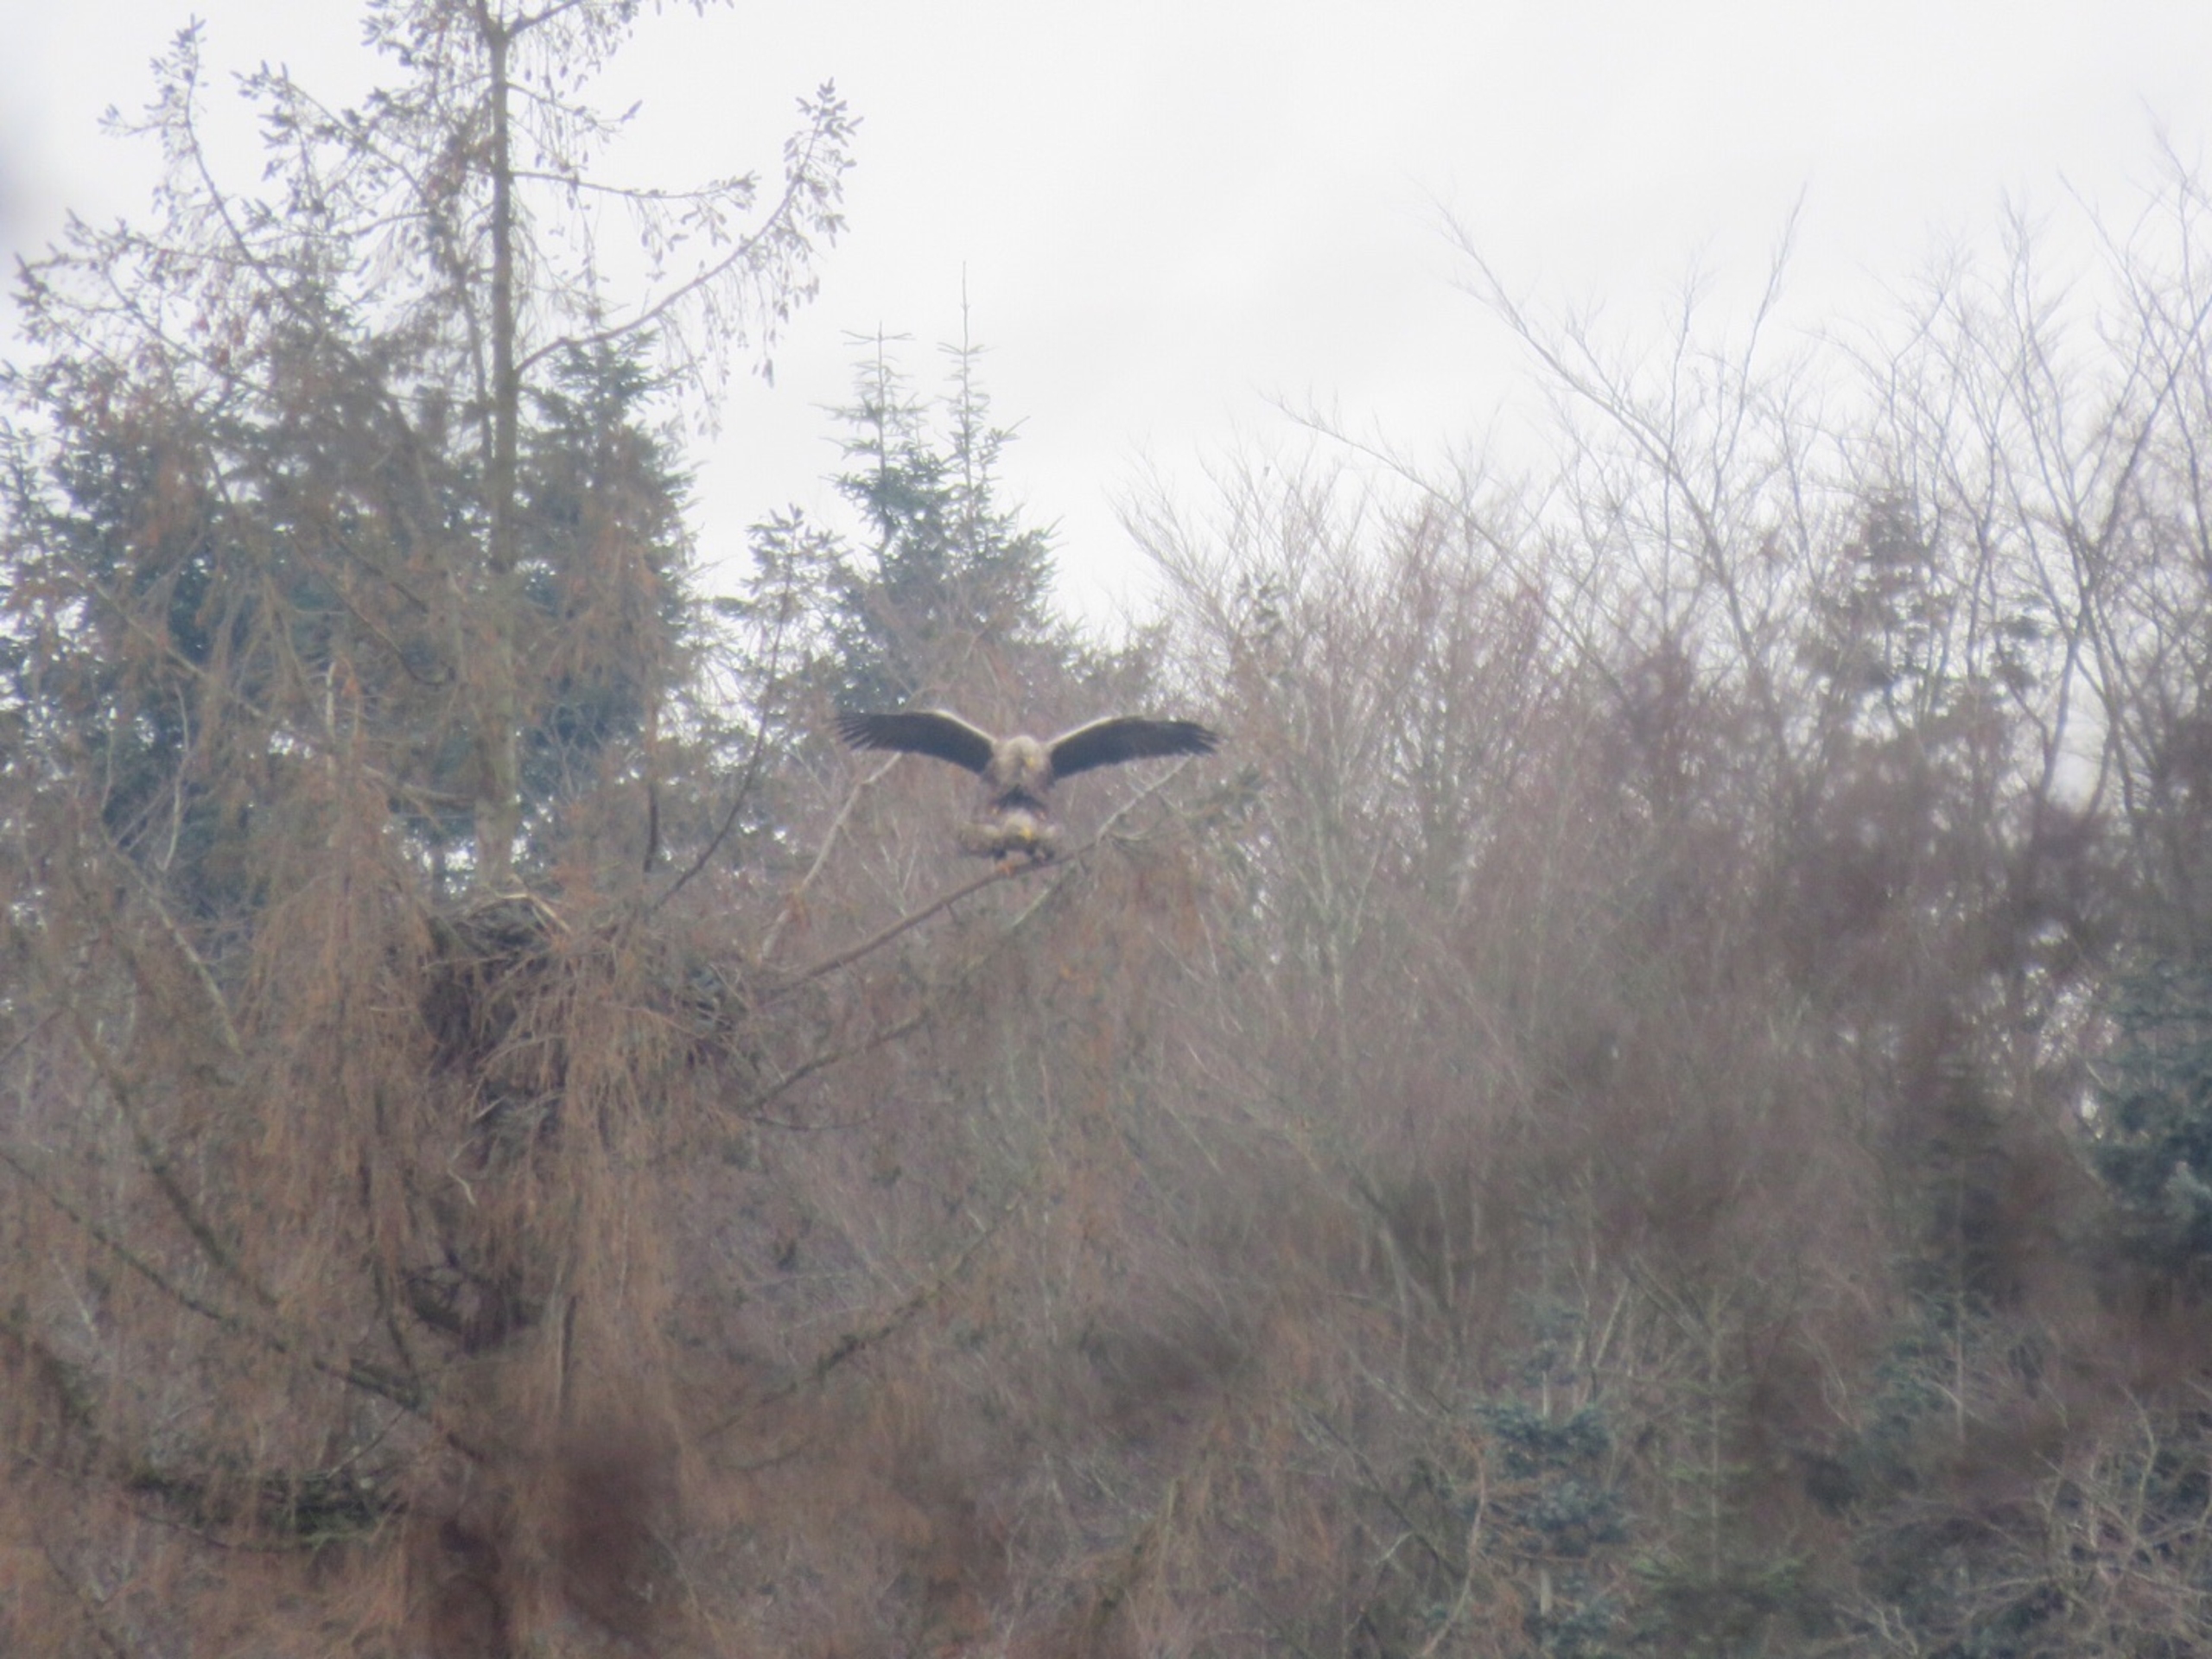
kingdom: Animalia
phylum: Chordata
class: Aves
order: Accipitriformes
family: Accipitridae
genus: Haliaeetus
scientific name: Haliaeetus albicilla
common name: Havørn
